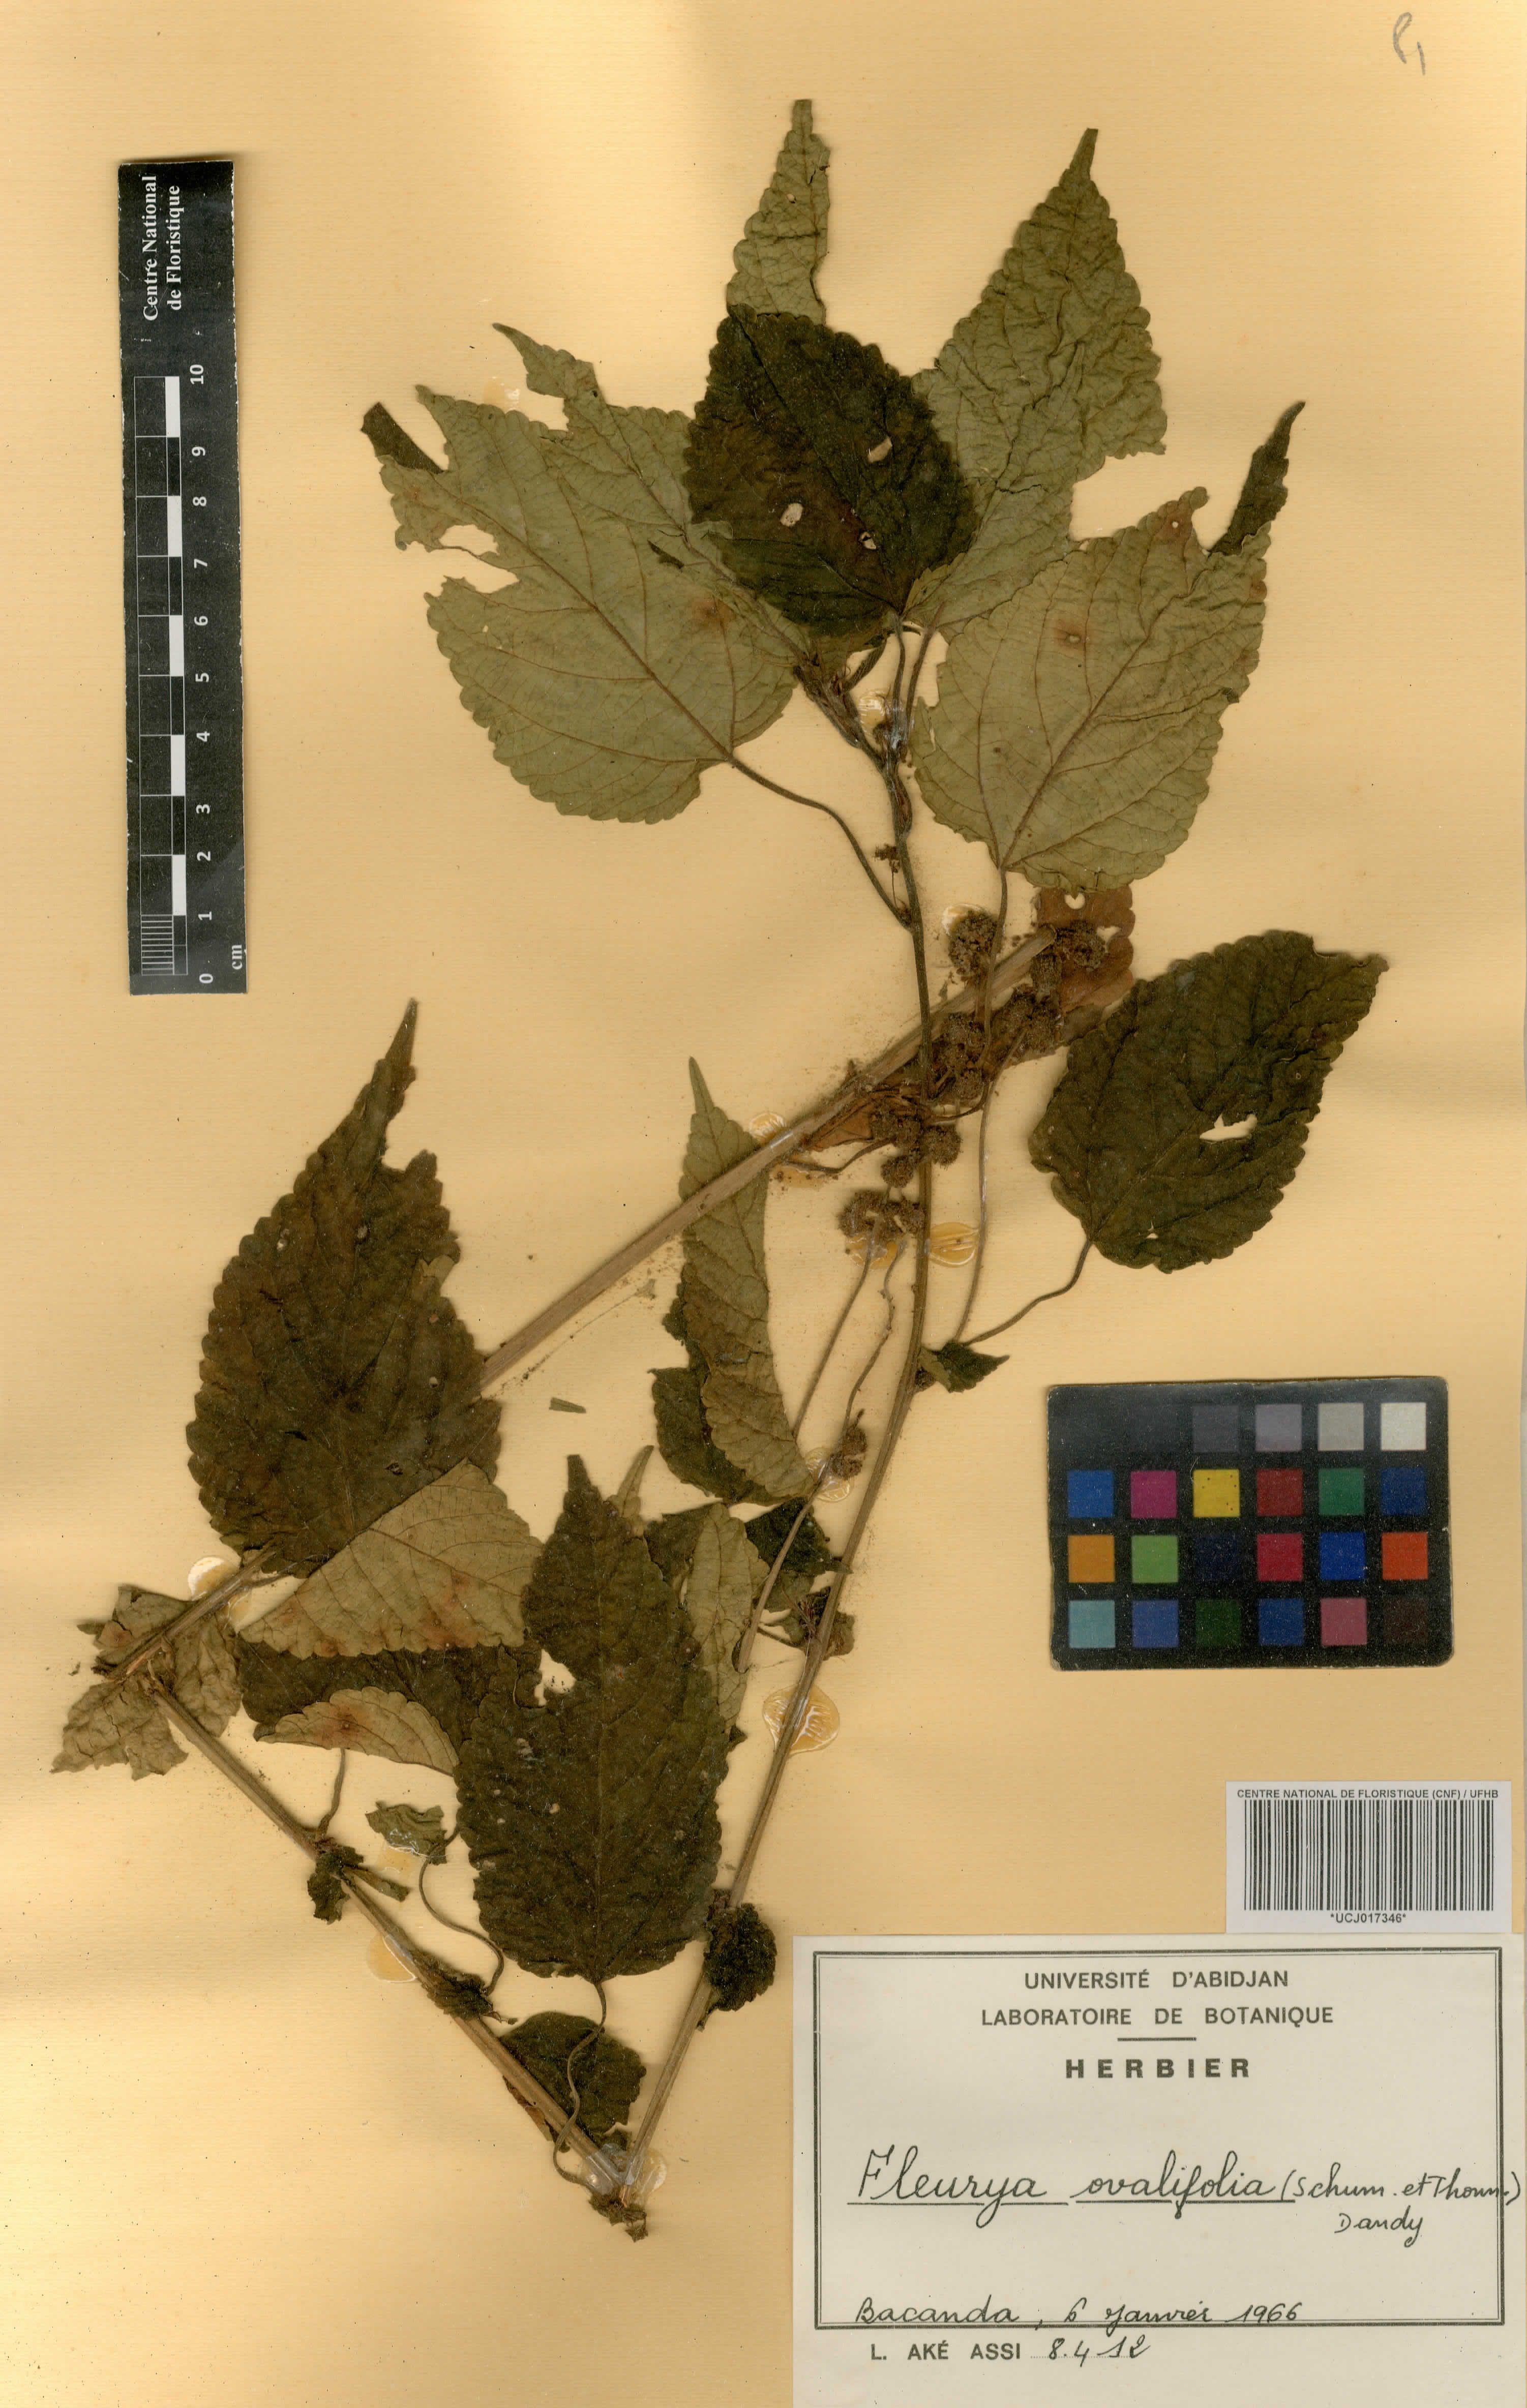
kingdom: Plantae
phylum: Tracheophyta
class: Magnoliopsida
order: Rosales
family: Urticaceae
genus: Laportea
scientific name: Laportea ovalifolia
